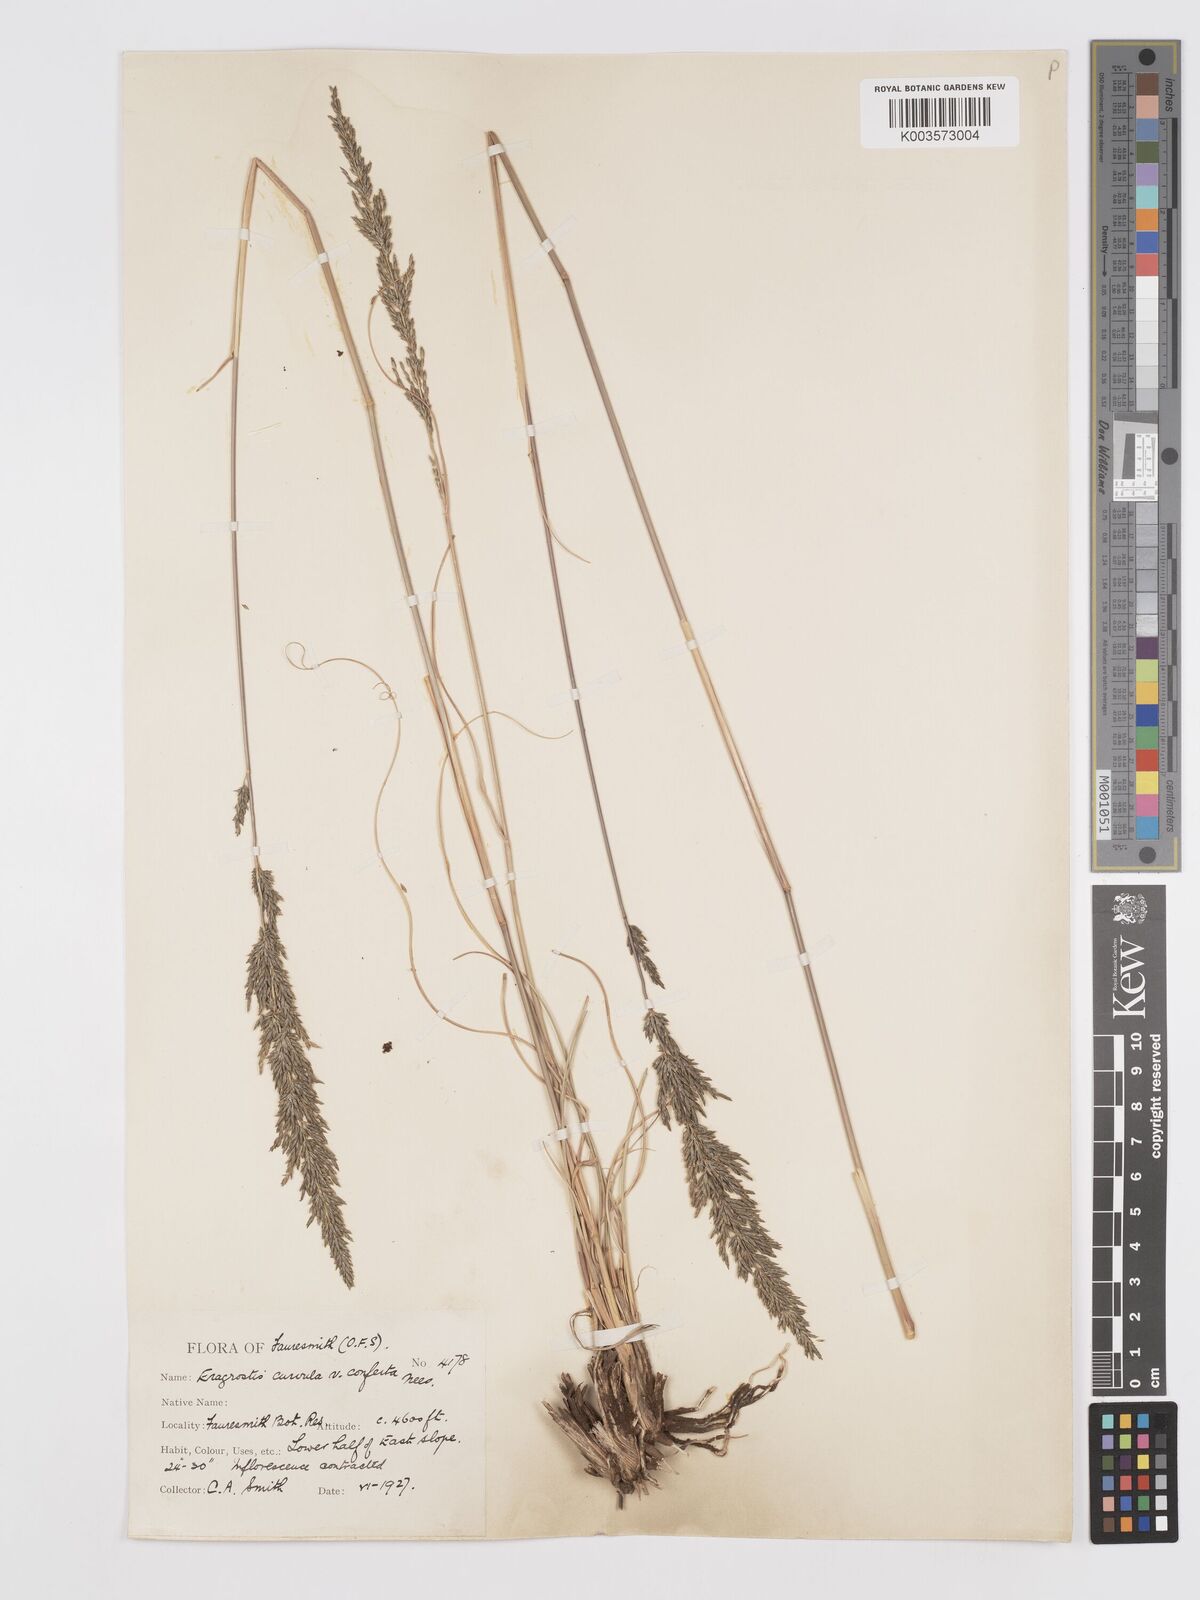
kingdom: Plantae
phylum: Tracheophyta
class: Liliopsida
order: Poales
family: Poaceae
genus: Eragrostis
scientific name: Eragrostis curvula
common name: African love-grass
